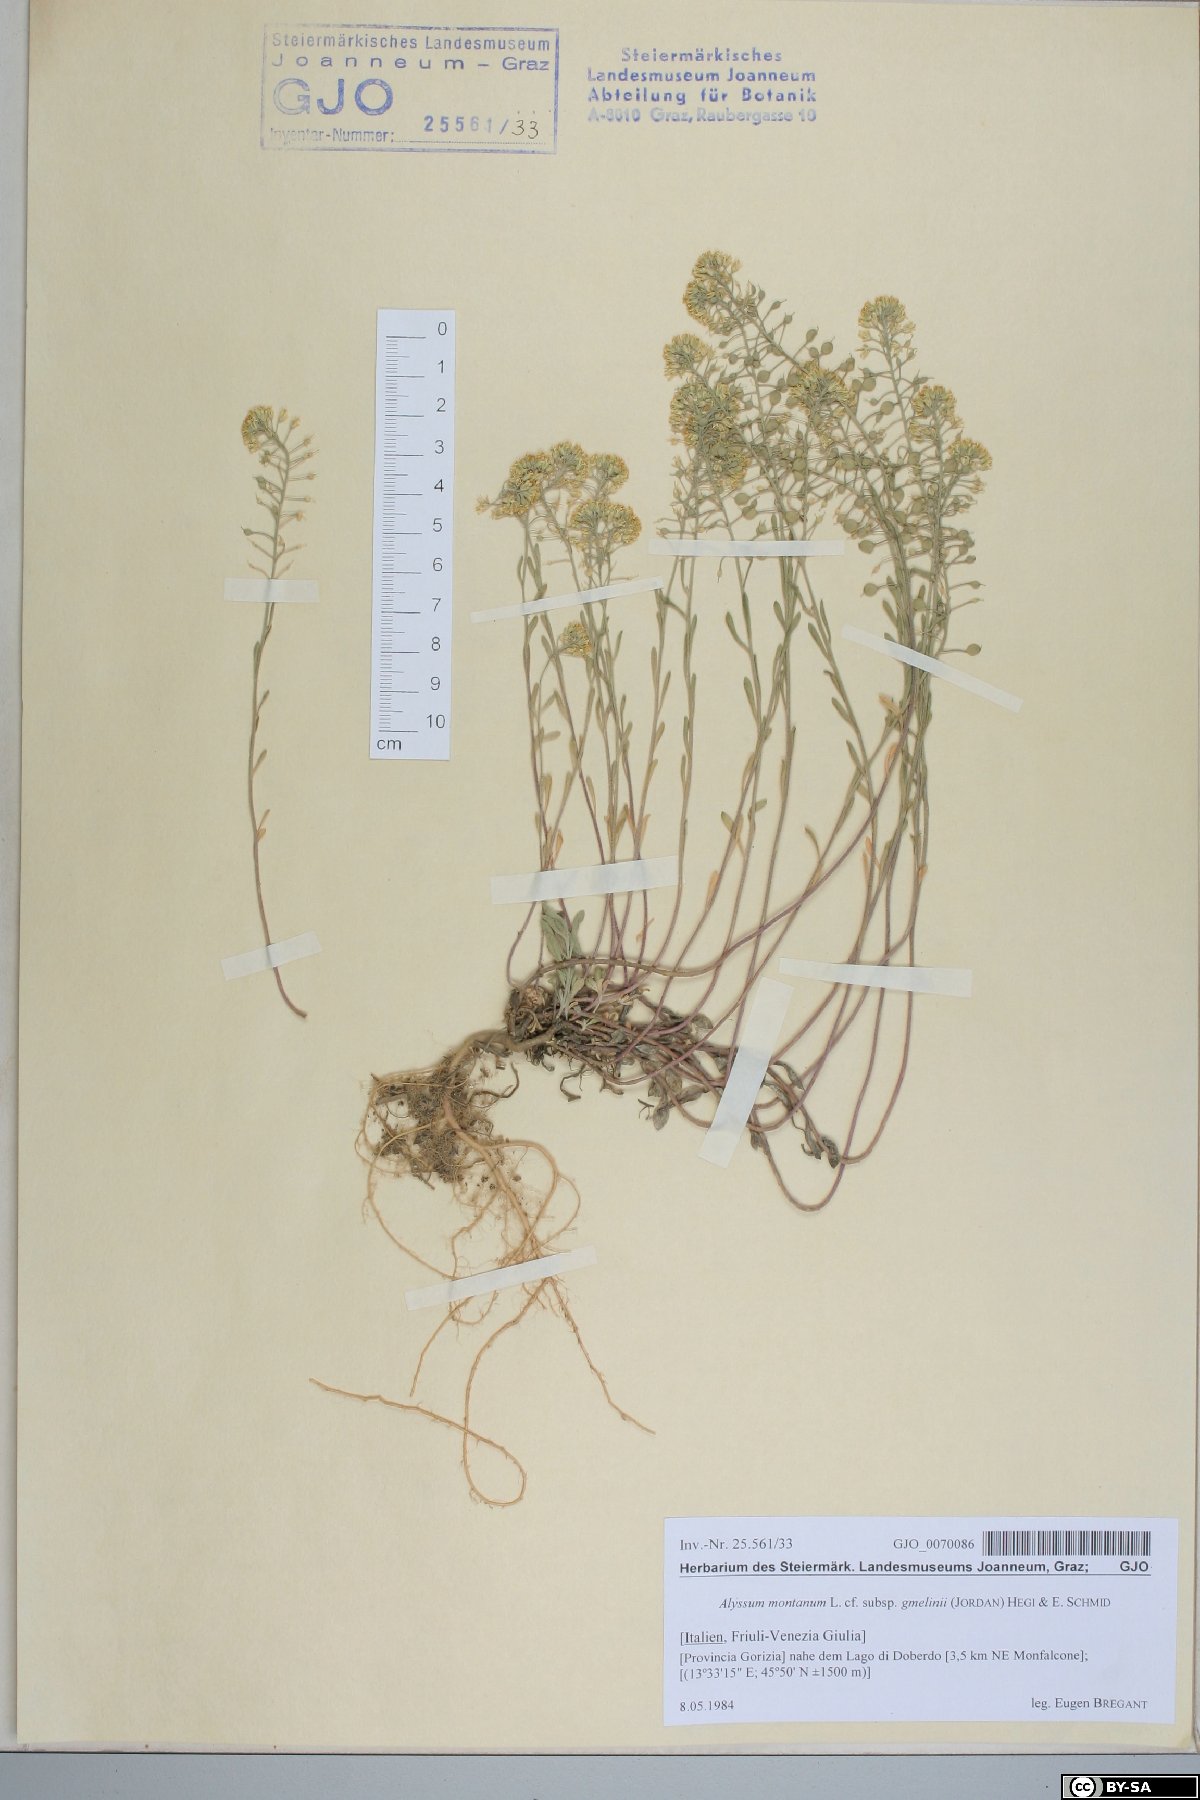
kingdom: Plantae
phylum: Tracheophyta
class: Magnoliopsida
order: Brassicales
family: Brassicaceae
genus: Alyssum
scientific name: Alyssum gmelinii
